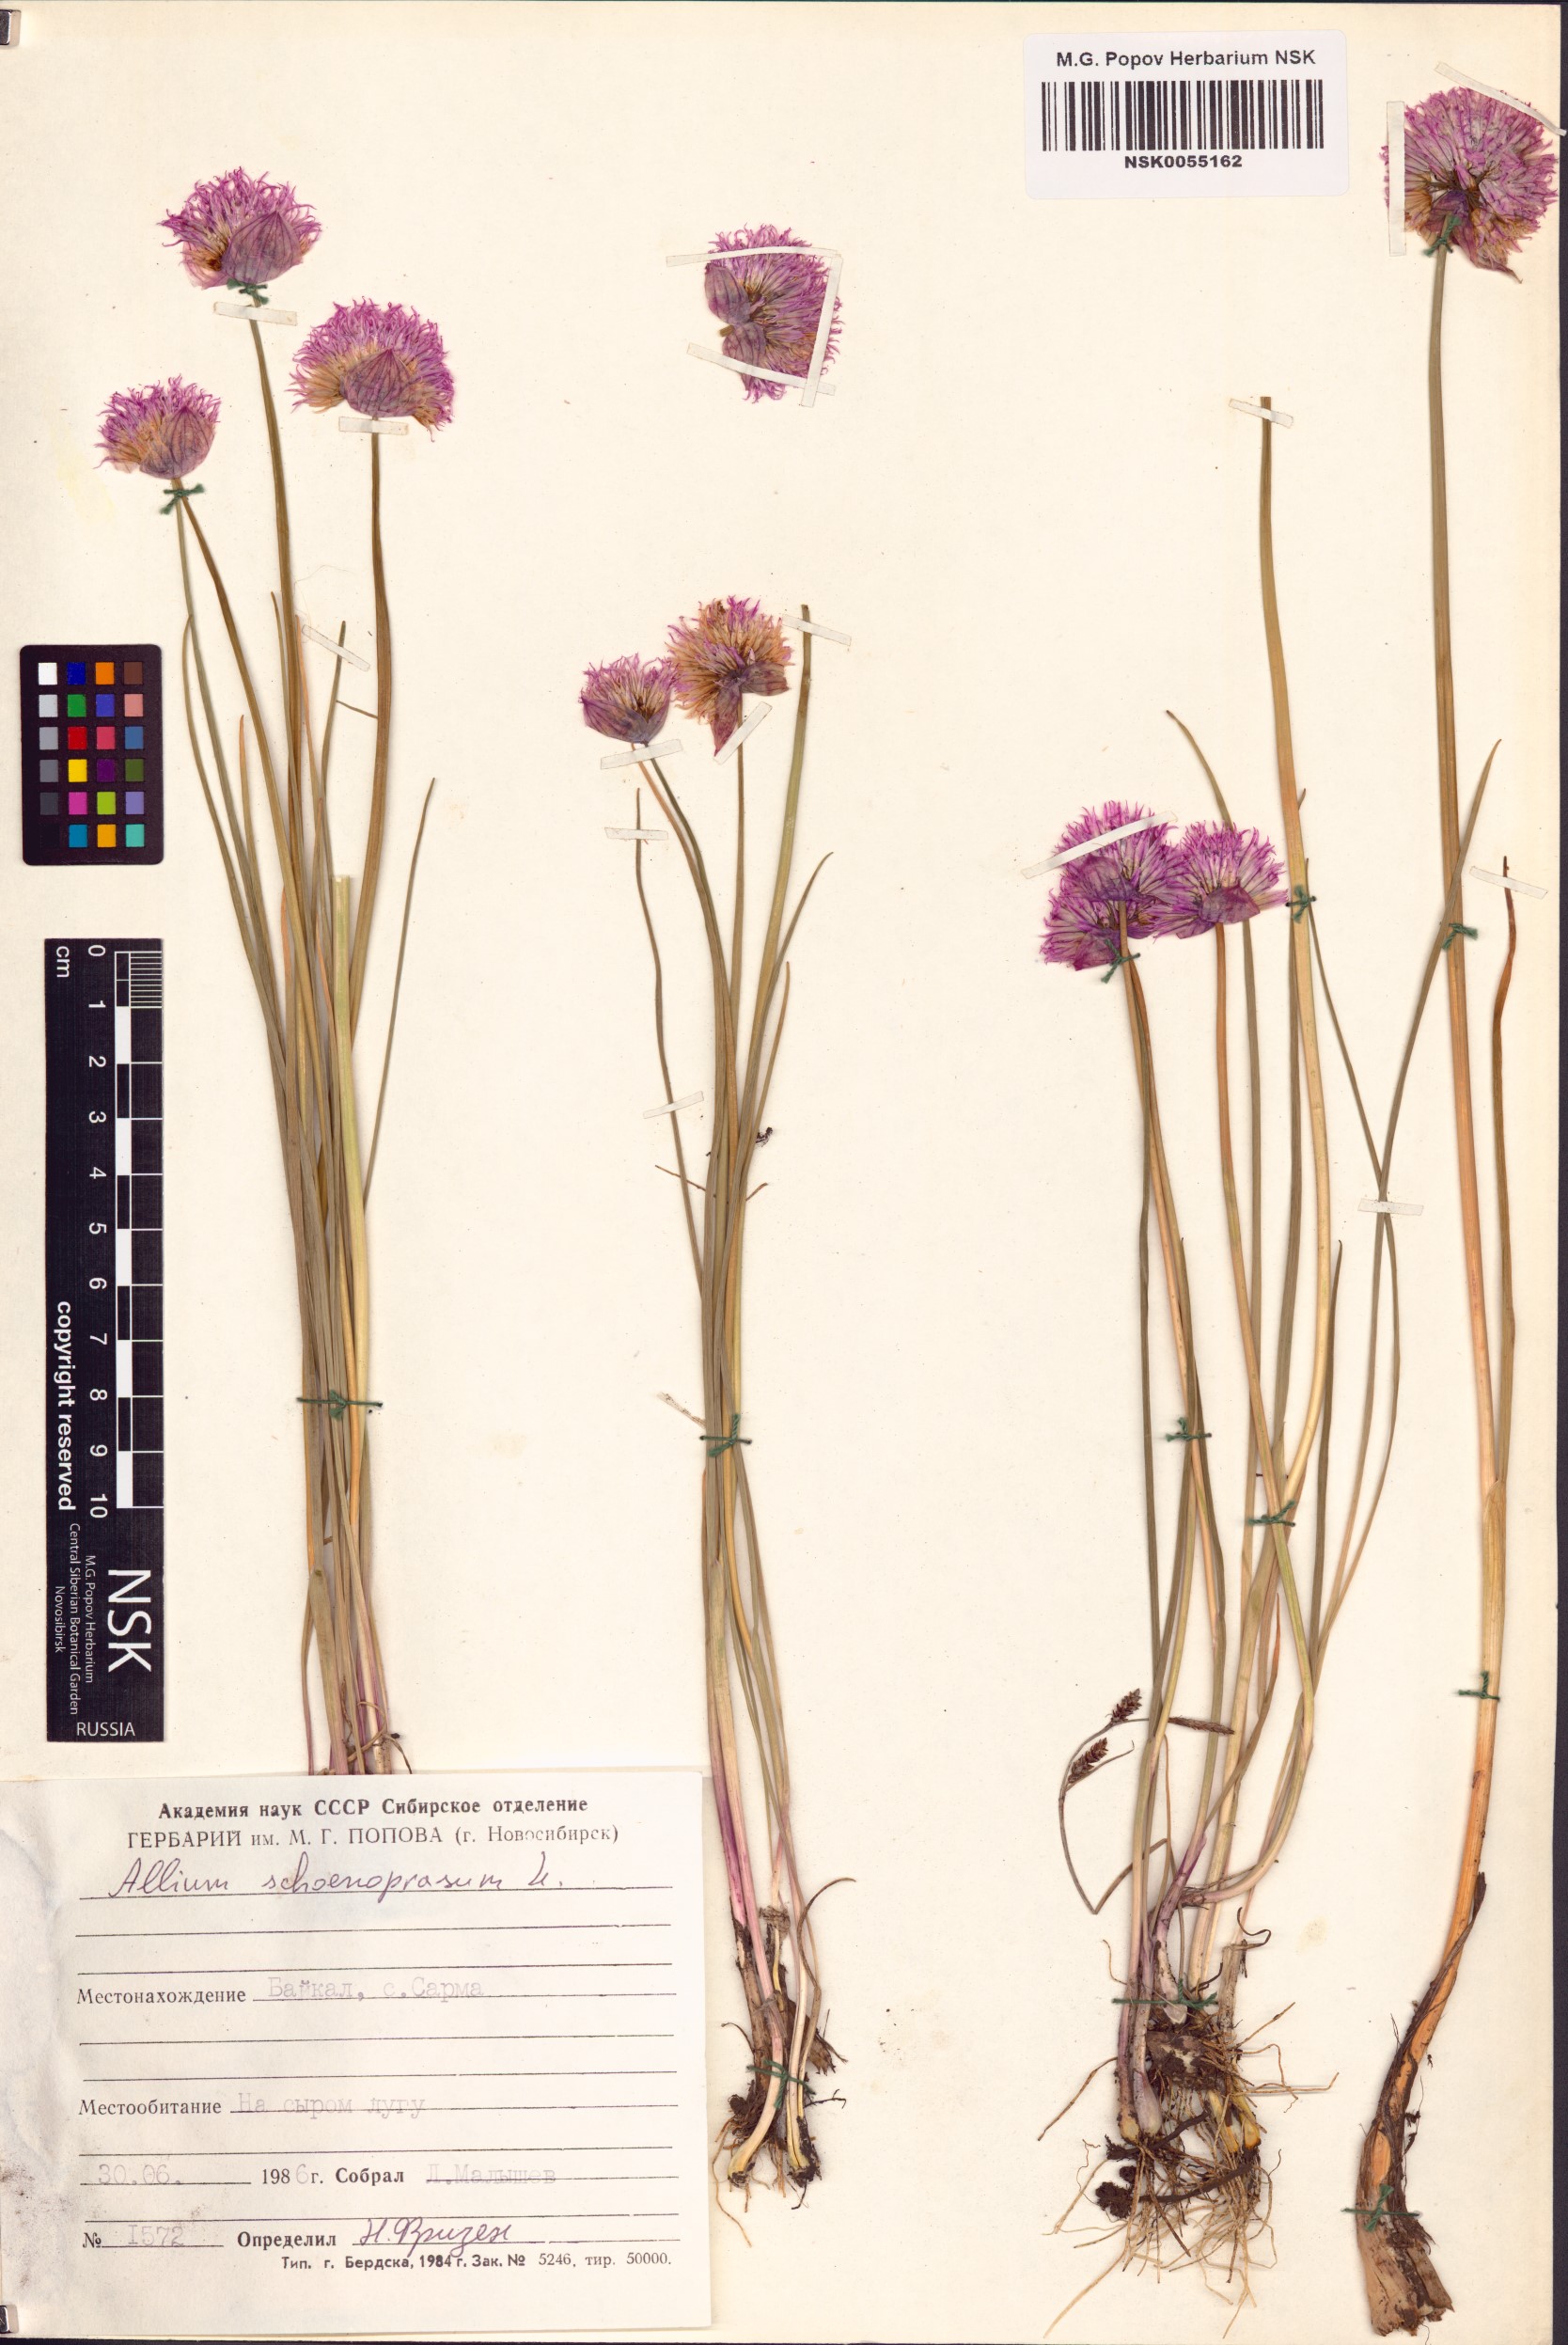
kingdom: Plantae
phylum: Tracheophyta
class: Liliopsida
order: Asparagales
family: Amaryllidaceae
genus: Allium
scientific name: Allium schoenoprasum
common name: Chives
